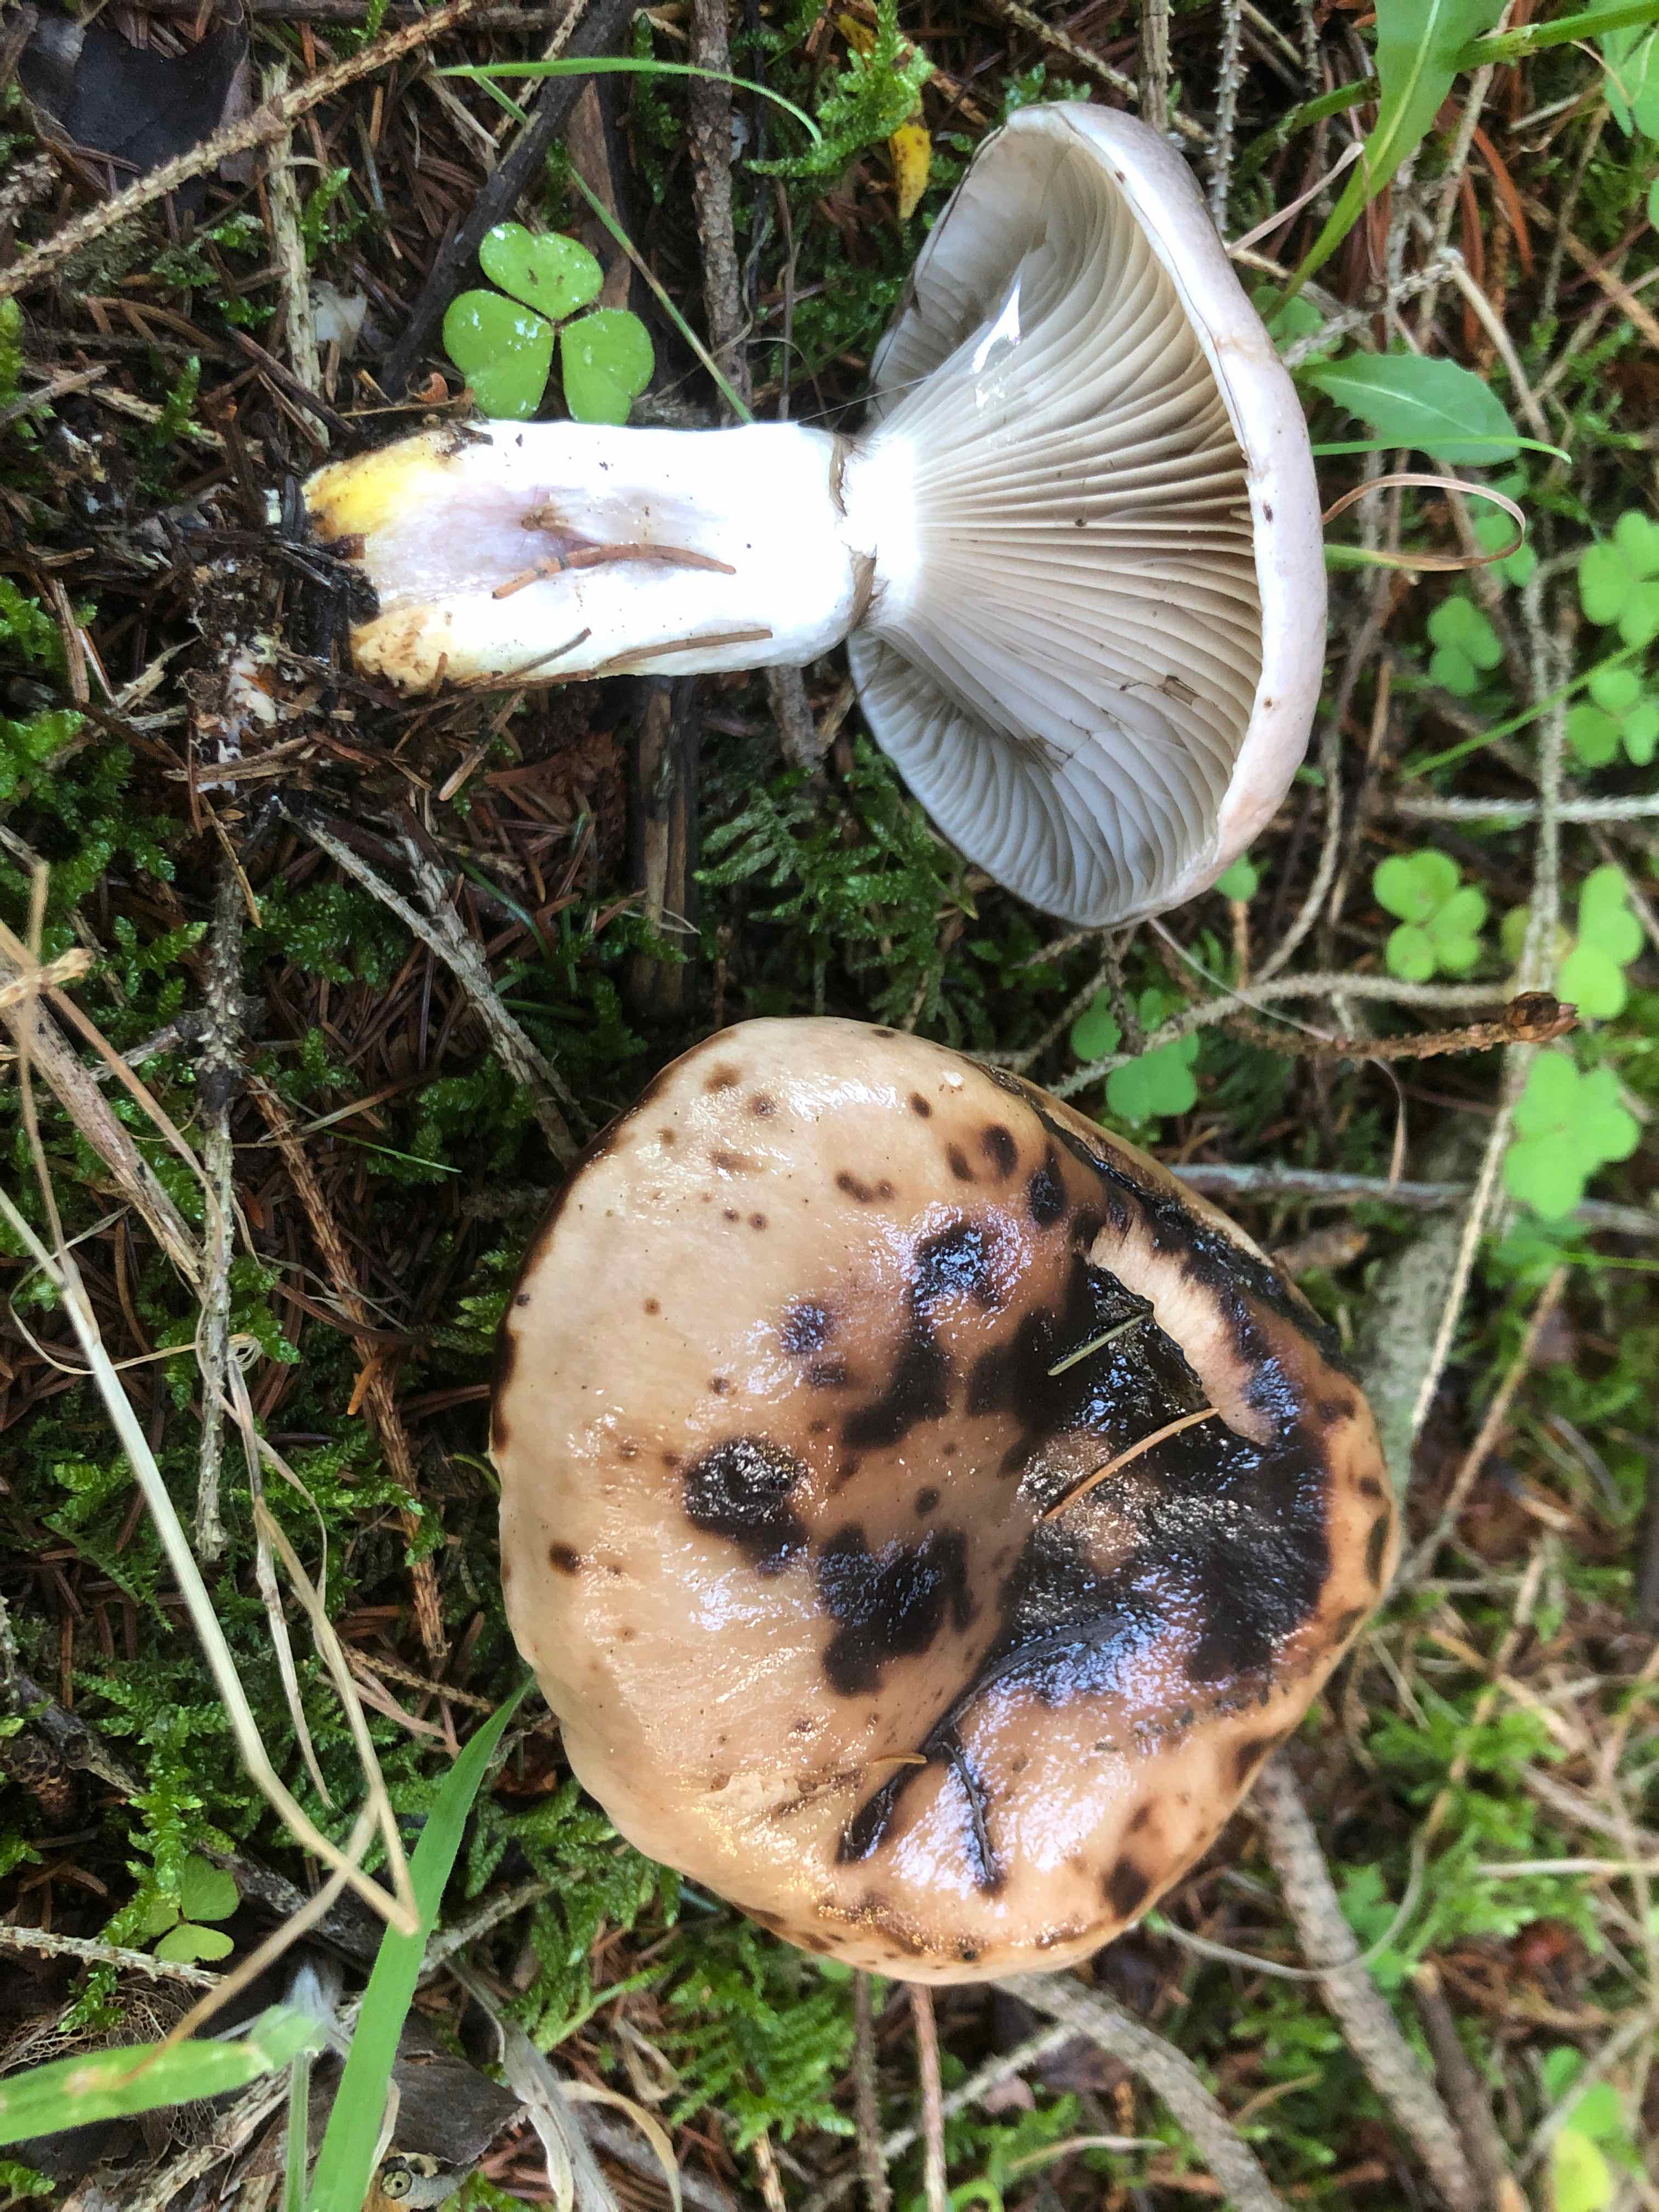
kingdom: Fungi
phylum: Basidiomycota
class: Agaricomycetes
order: Boletales
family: Gomphidiaceae
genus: Gomphidius
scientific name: Gomphidius glutinosus
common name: grå slimslør
